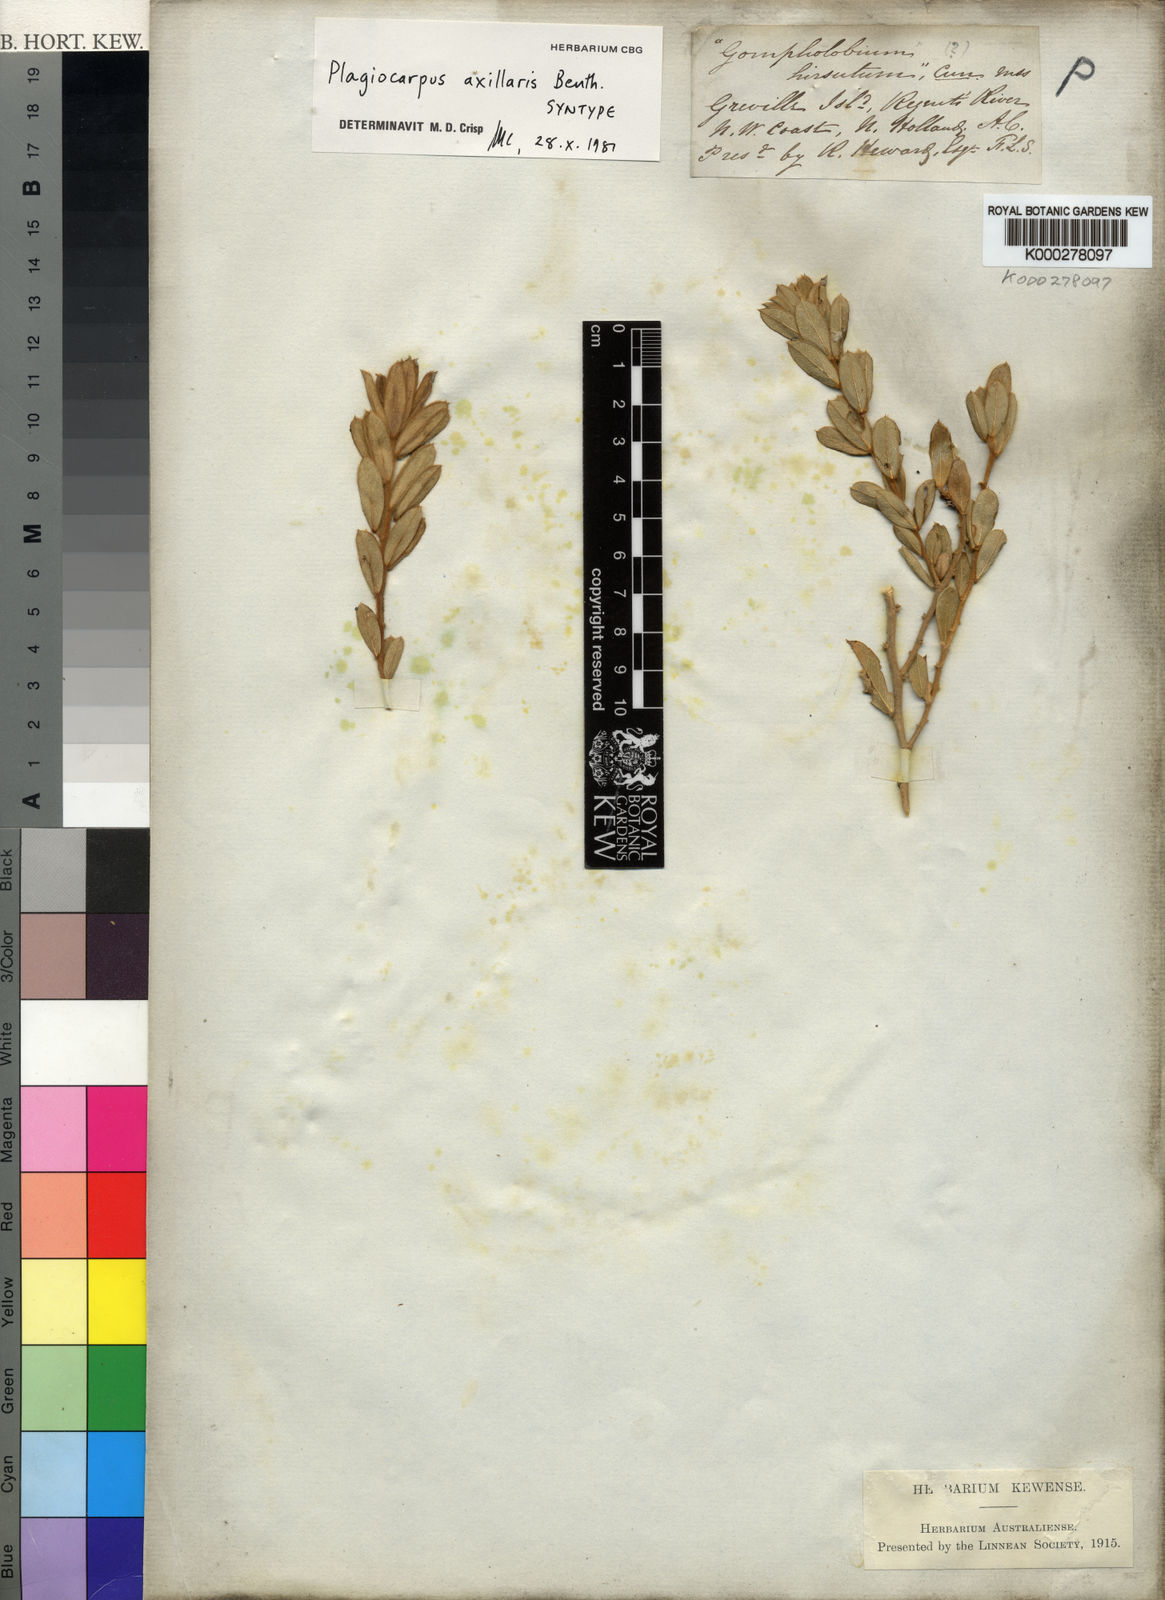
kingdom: Plantae
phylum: Tracheophyta
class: Magnoliopsida
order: Fabales
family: Fabaceae
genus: Plagiocarpus
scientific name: Plagiocarpus axillaris
